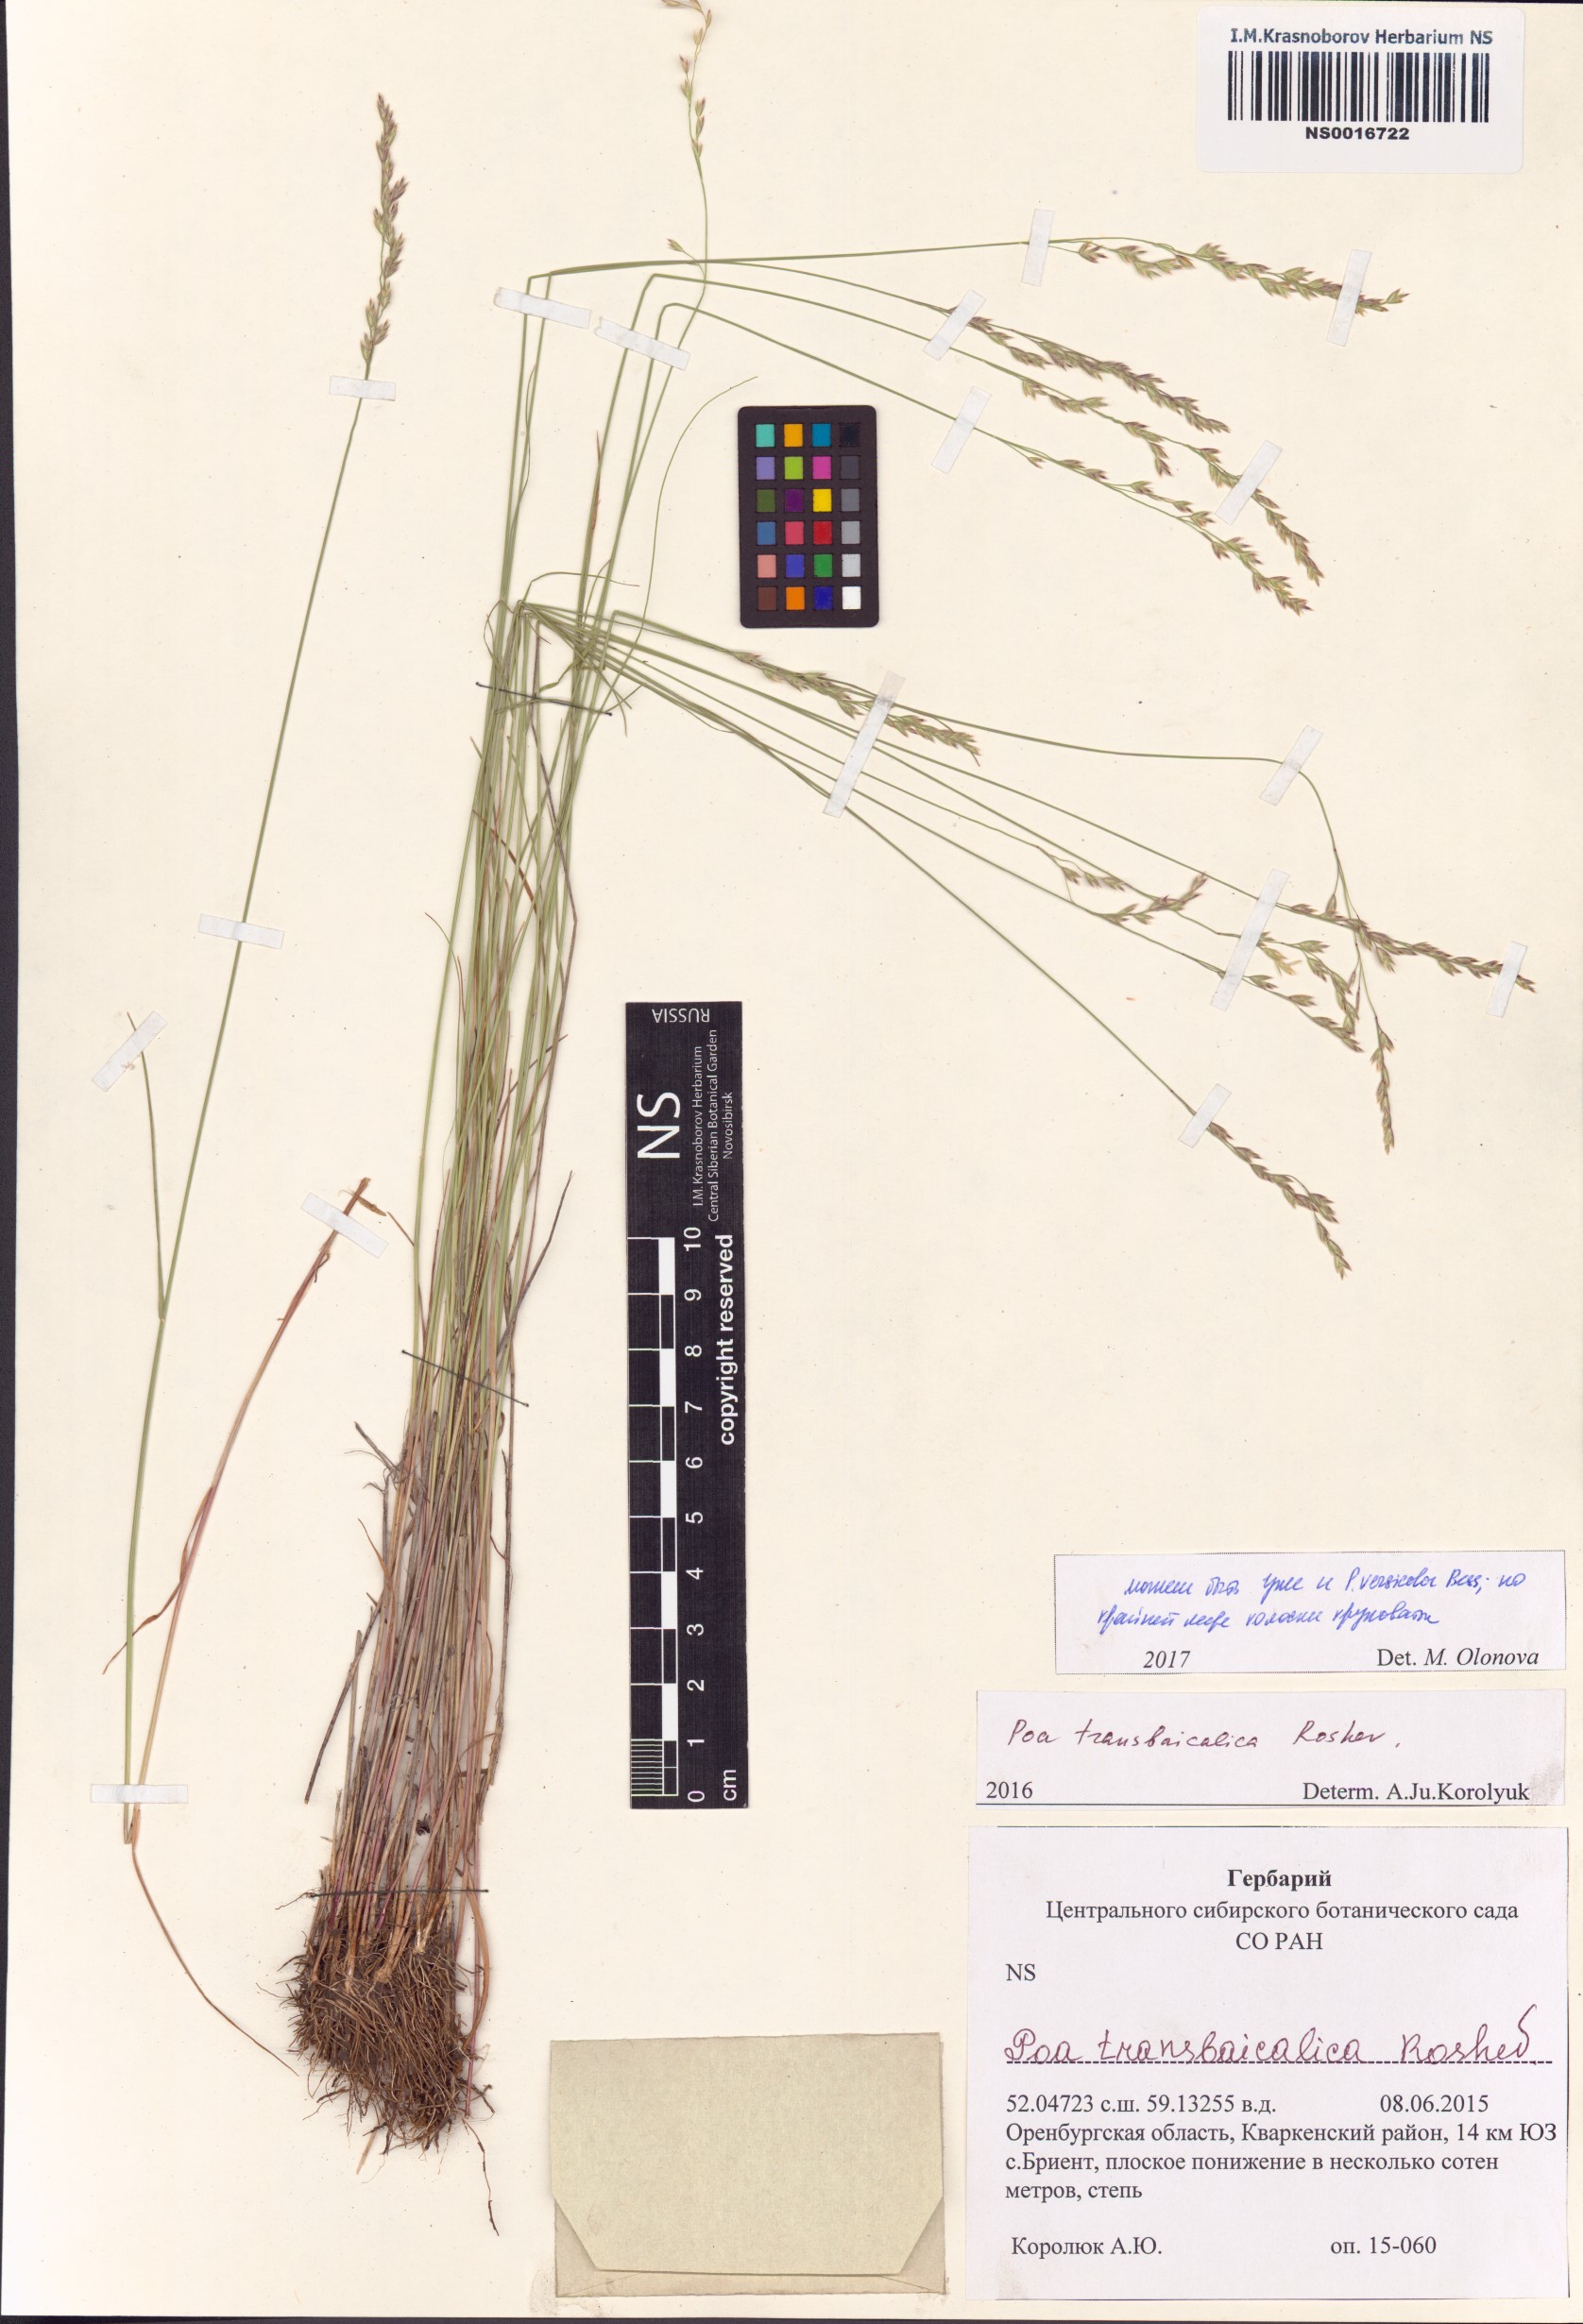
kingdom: Plantae
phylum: Tracheophyta
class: Liliopsida
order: Poales
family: Poaceae
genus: Poa
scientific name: Poa versicolor
